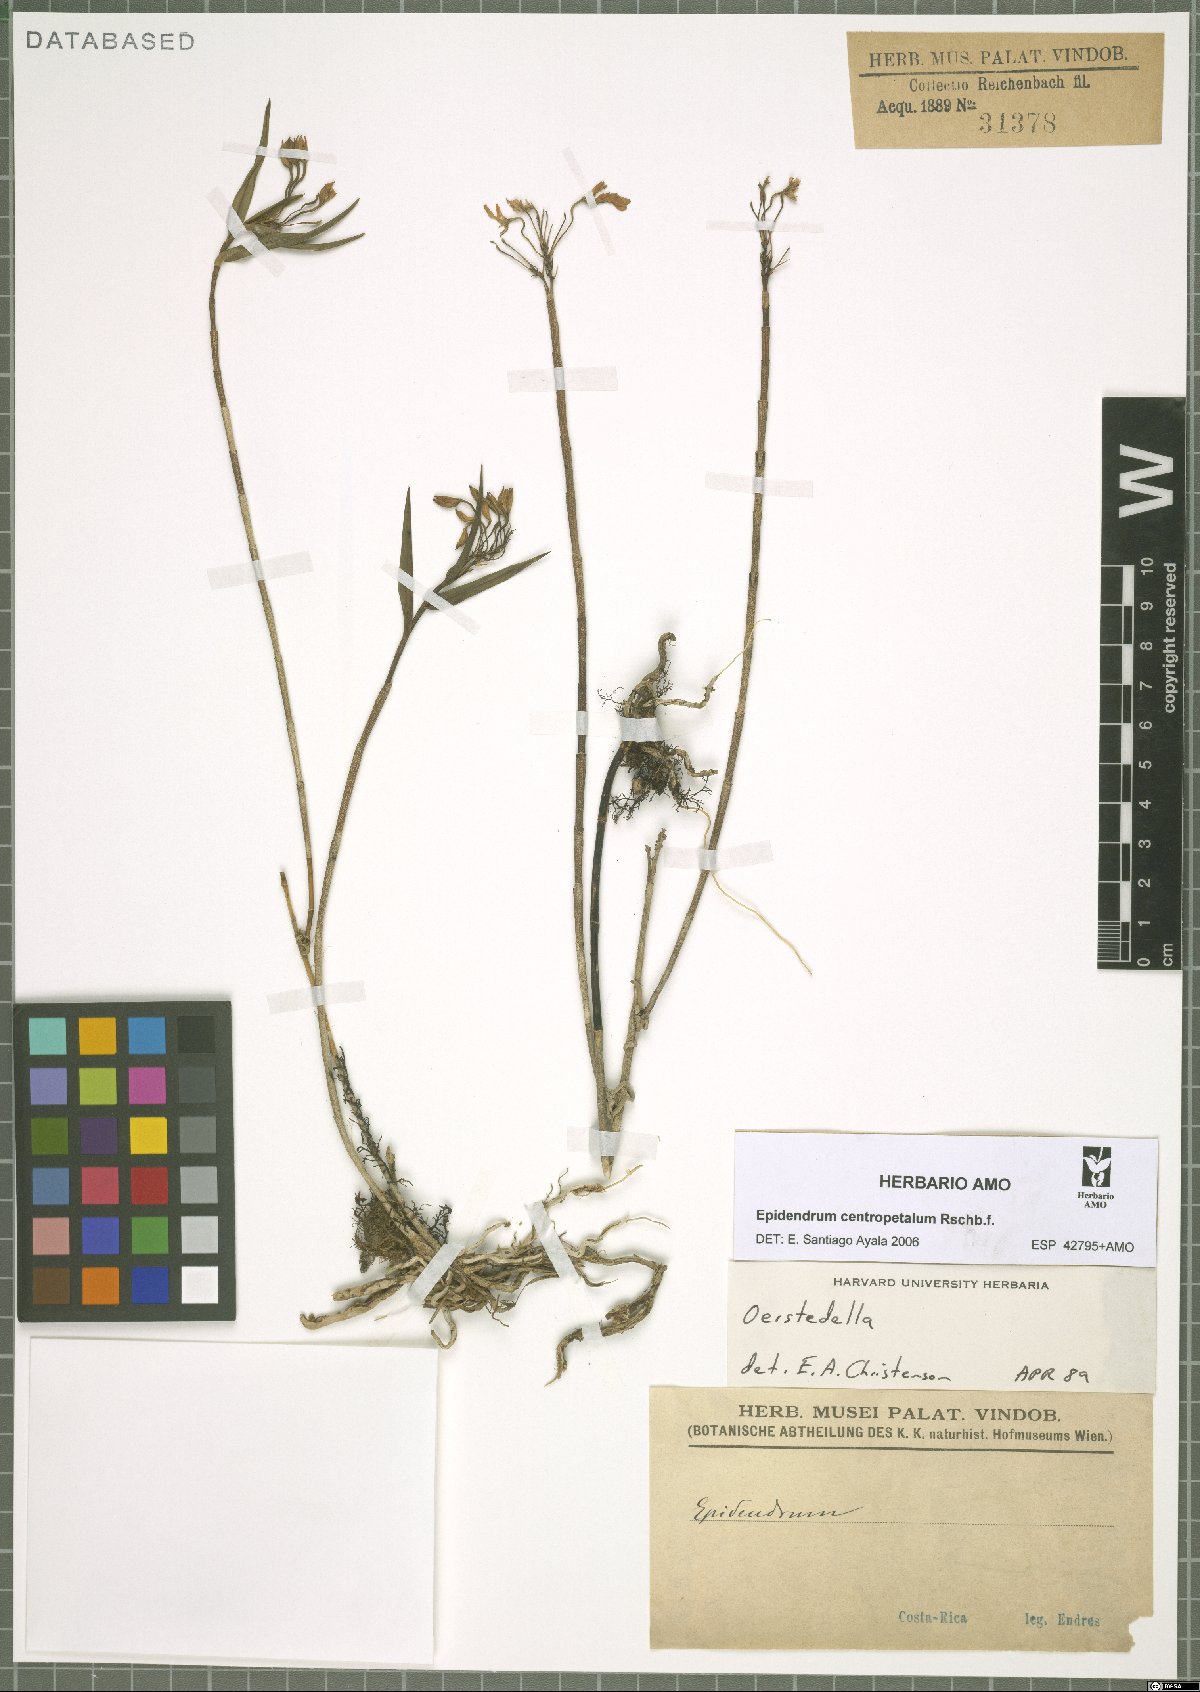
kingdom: Plantae
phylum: Tracheophyta
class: Liliopsida
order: Asparagales
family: Orchidaceae
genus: Epidendrum
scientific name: Epidendrum centropetalum
